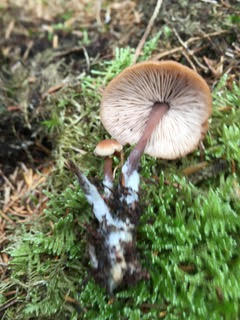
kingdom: Fungi
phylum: Basidiomycota
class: Agaricomycetes
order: Agaricales
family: Omphalotaceae
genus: Connopus
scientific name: Connopus acervatus
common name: tue-fladhat
